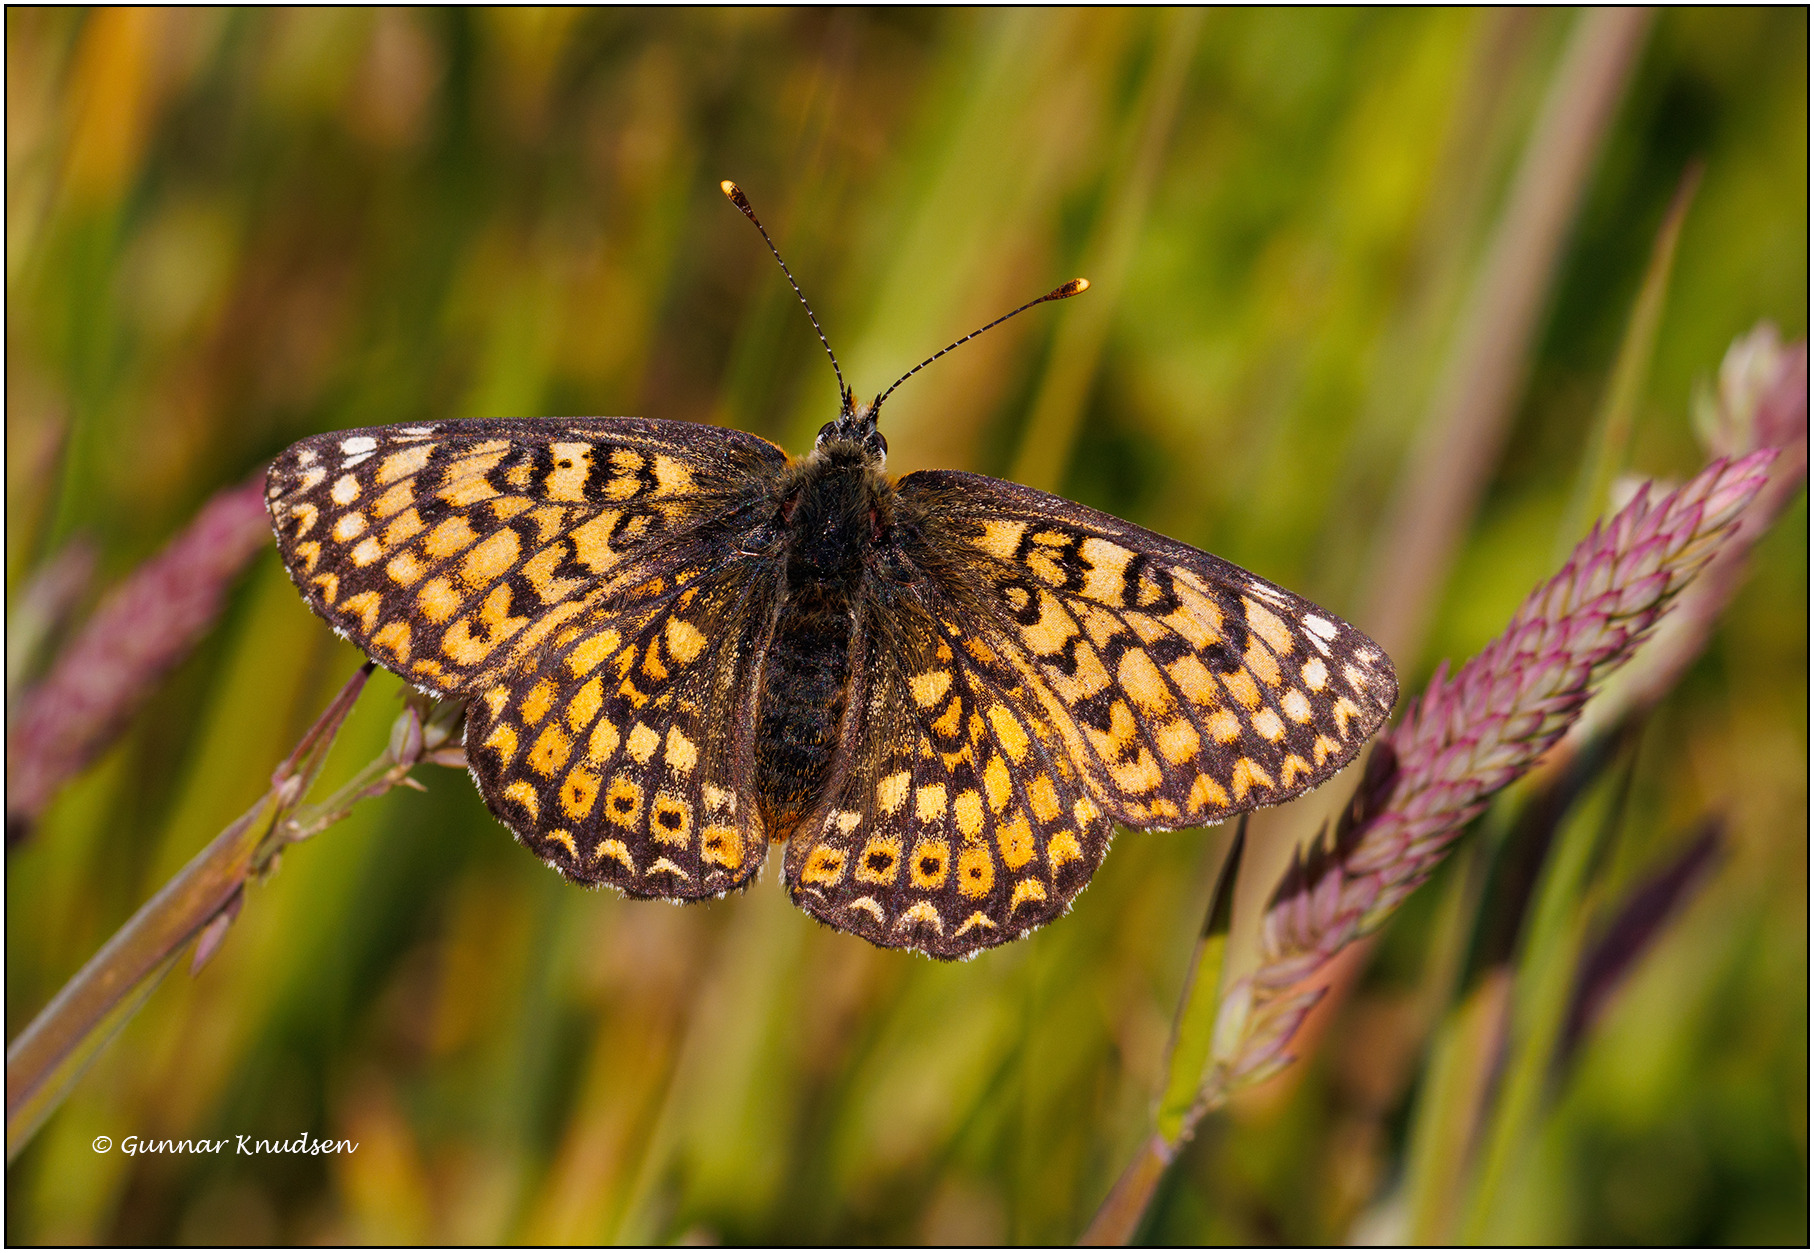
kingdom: Animalia
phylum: Arthropoda
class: Insecta
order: Lepidoptera
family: Nymphalidae
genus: Melitaea
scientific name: Melitaea cinxia
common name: Okkergul pletvinge
